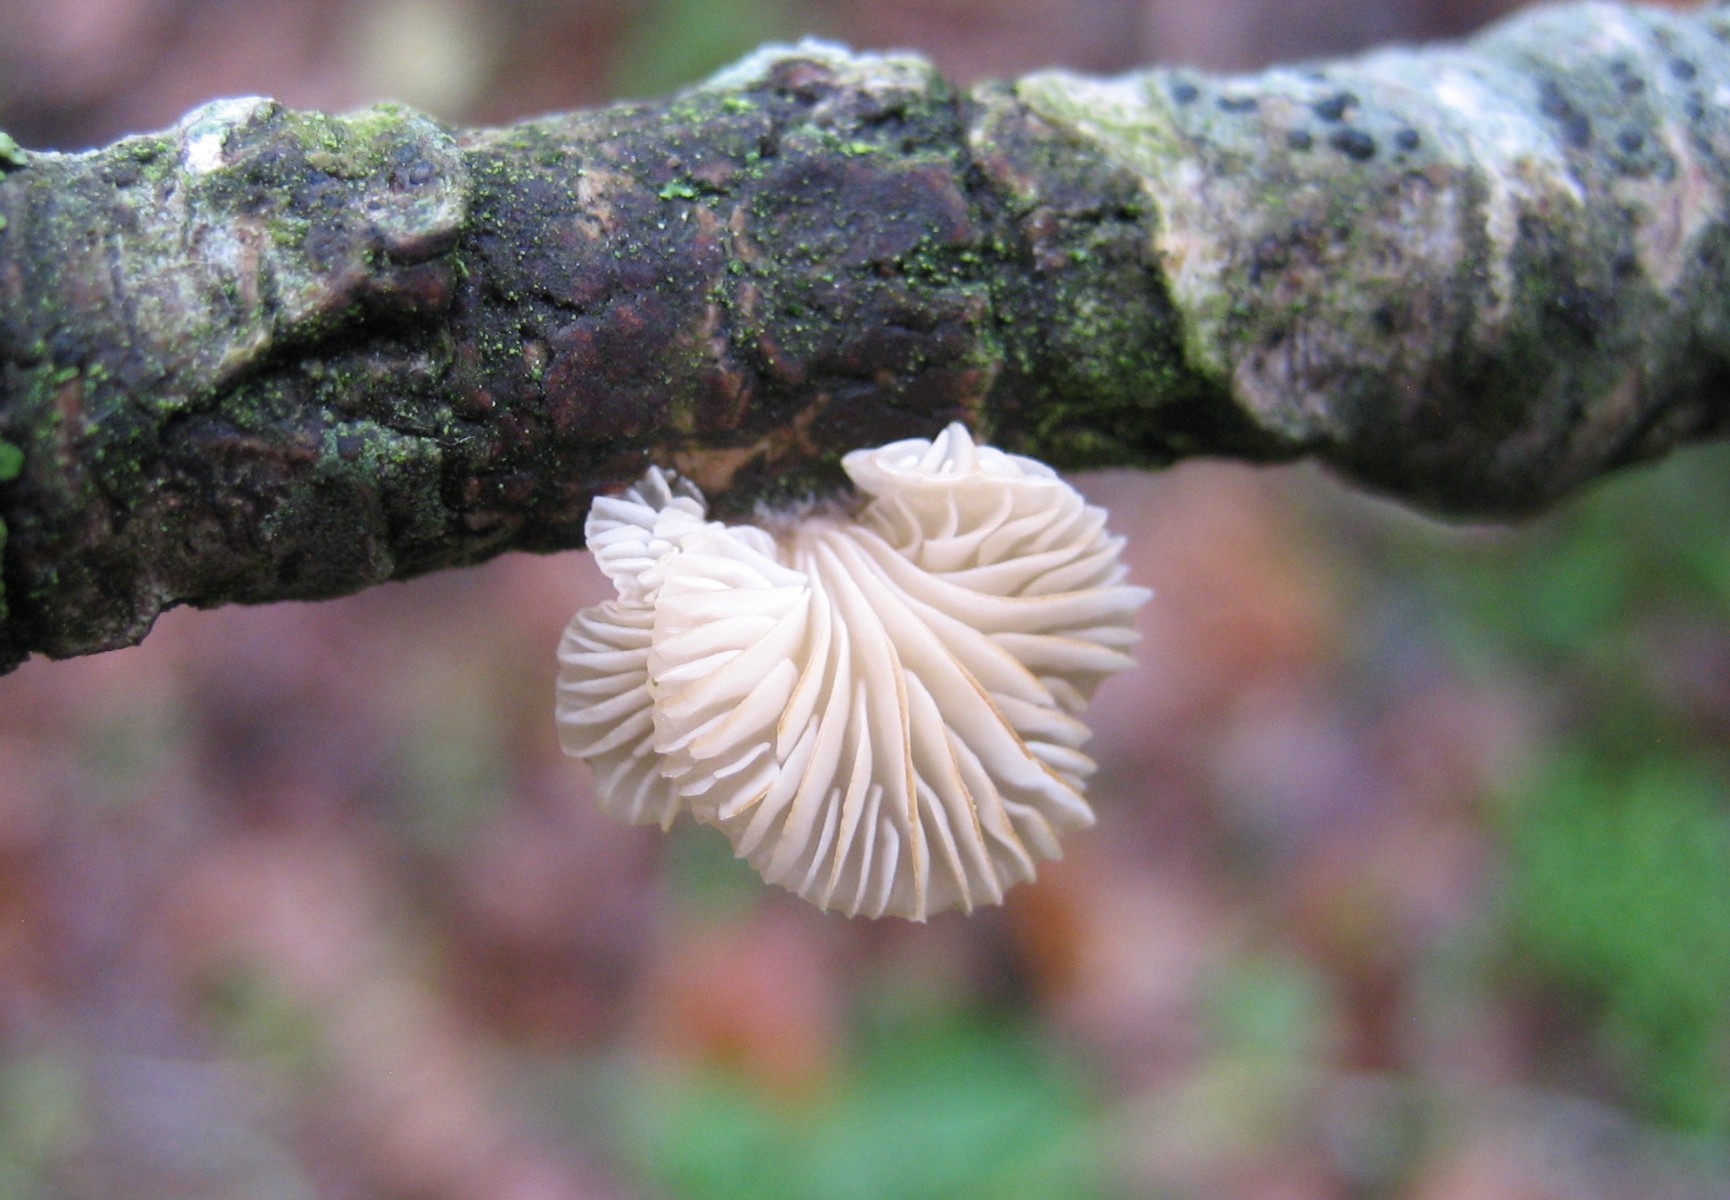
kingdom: Fungi
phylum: Basidiomycota
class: Agaricomycetes
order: Agaricales
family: Pleurotaceae
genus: Hohenbuehelia
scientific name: Hohenbuehelia
